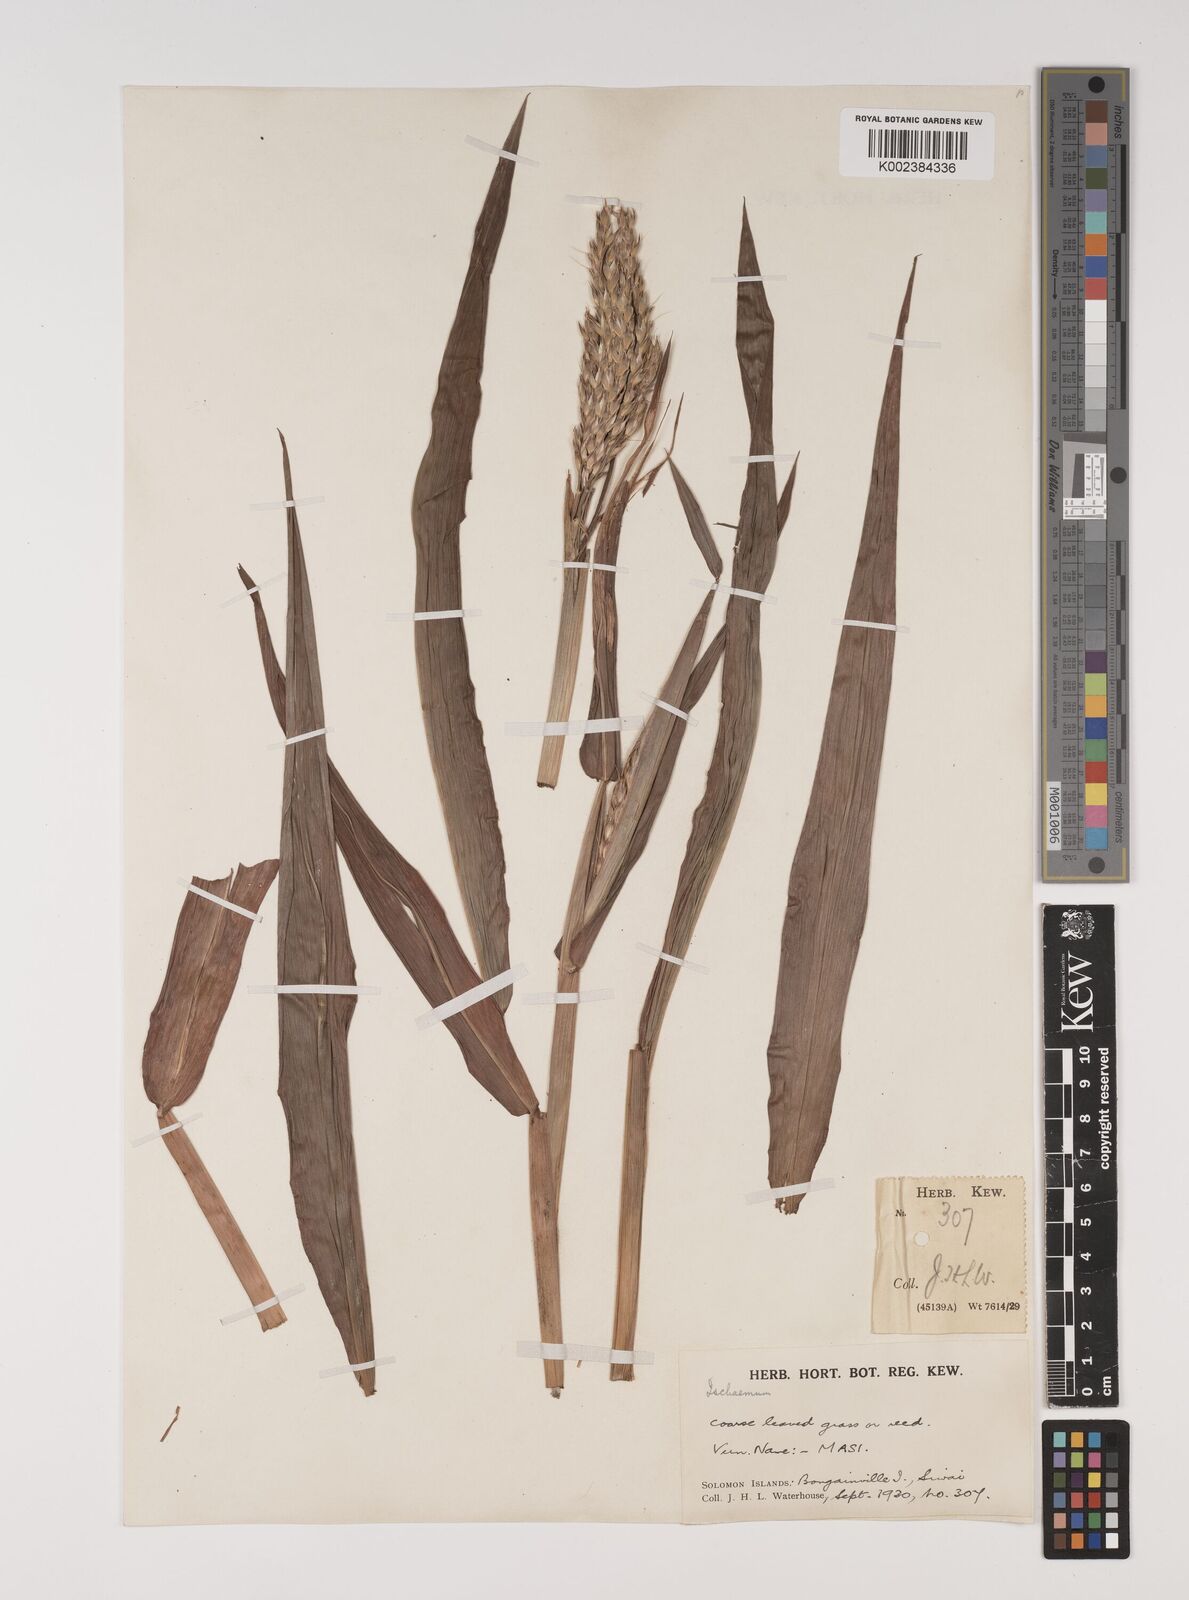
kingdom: Plantae
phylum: Tracheophyta
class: Liliopsida
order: Poales
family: Poaceae
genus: Ischaemum
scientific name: Ischaemum muticum
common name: Drought grass
